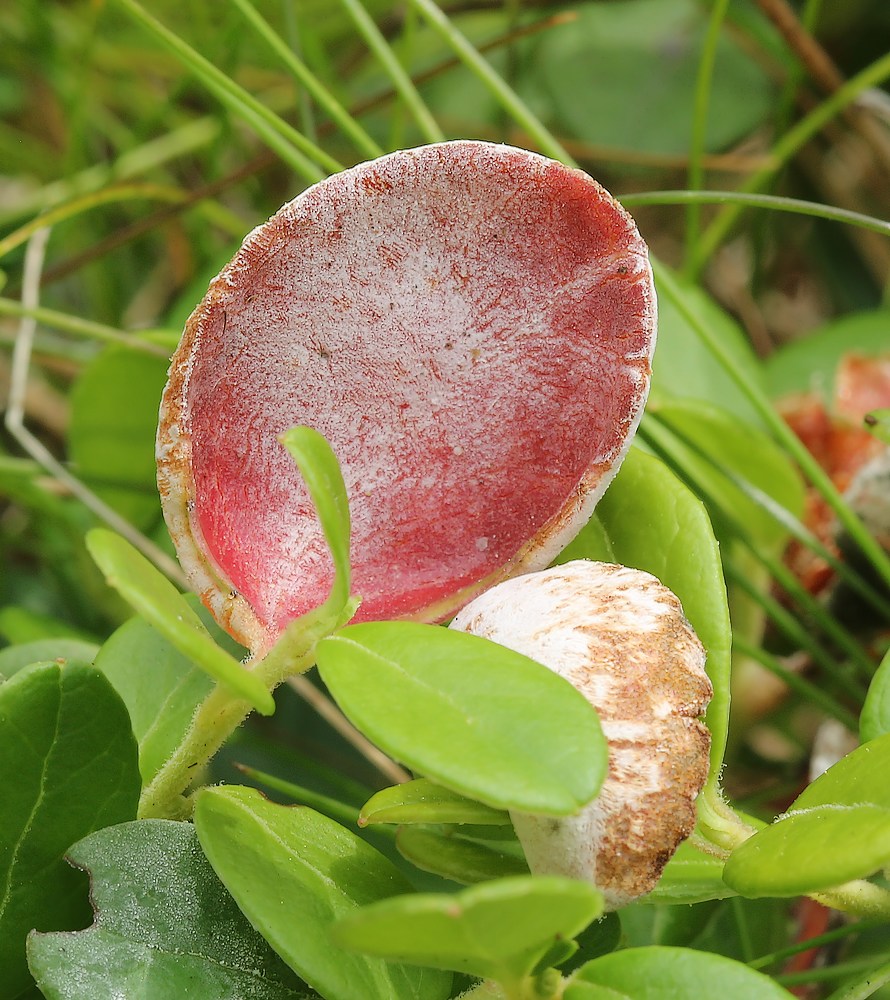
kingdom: Fungi
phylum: Basidiomycota
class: Exobasidiomycetes
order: Exobasidiales
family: Exobasidiaceae
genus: Exobasidium
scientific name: Exobasidium vaccinii
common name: tyttebærblad-bøllesvamp
